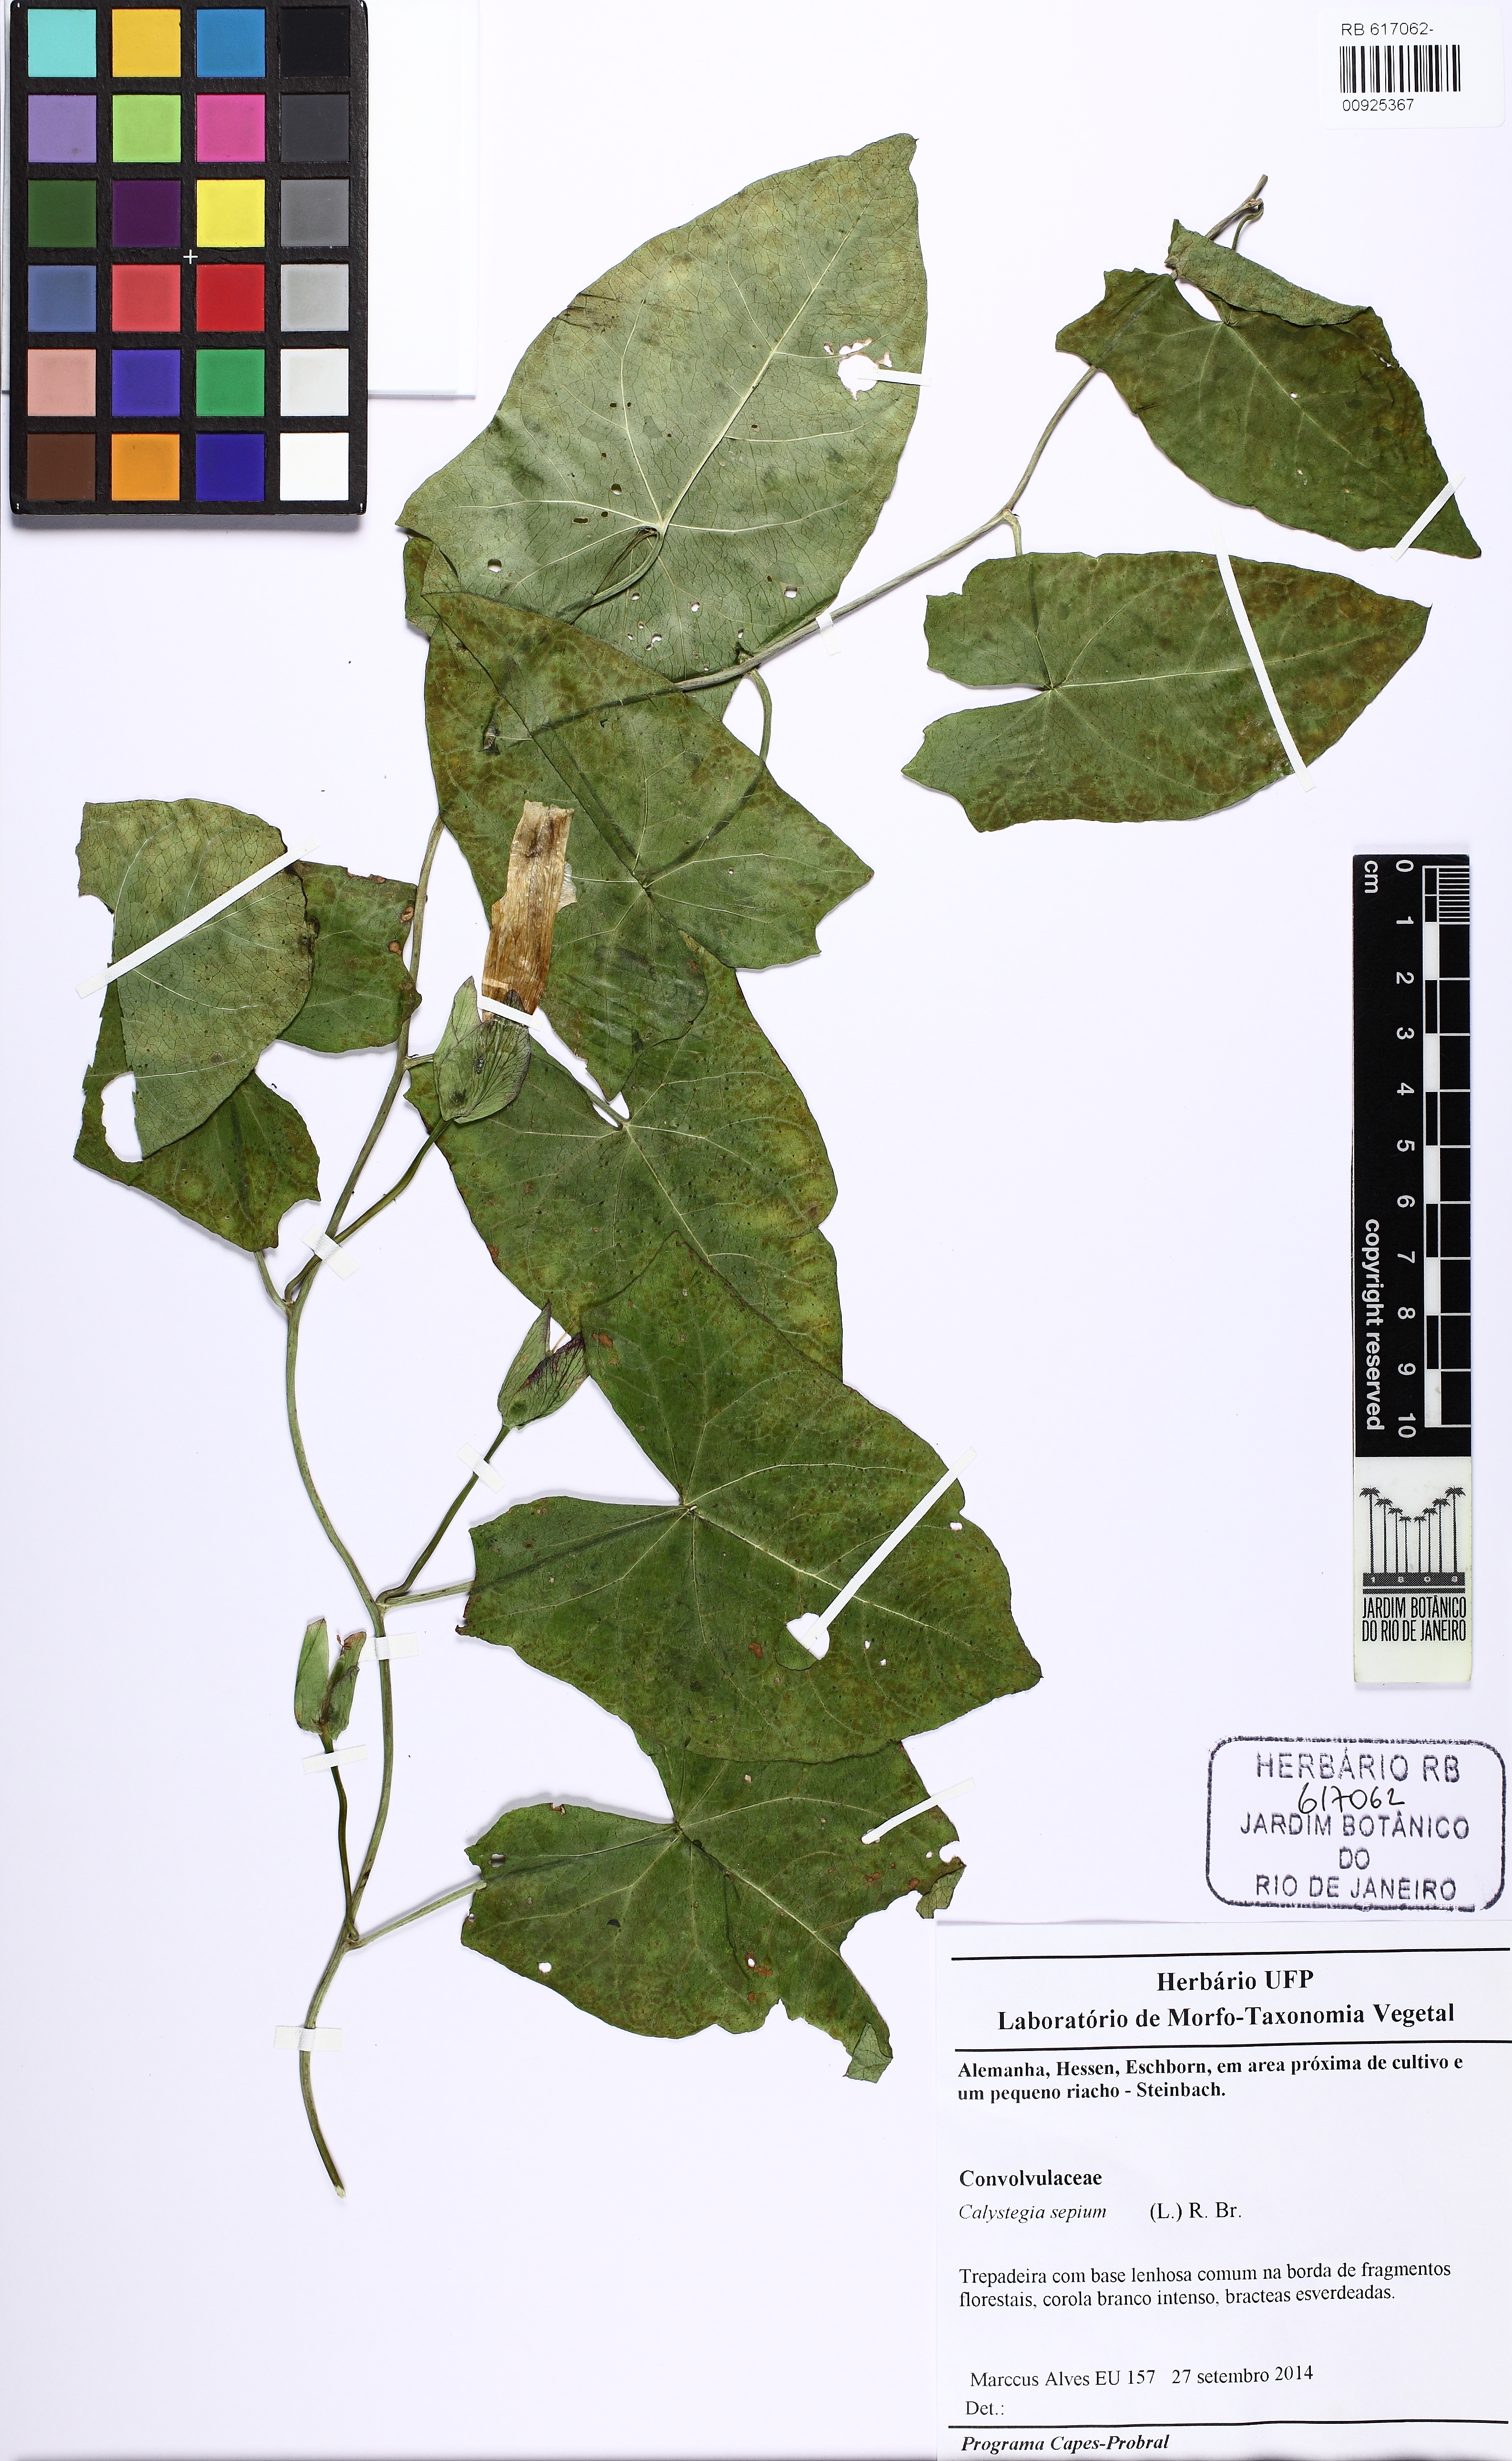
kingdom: Plantae
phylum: Tracheophyta
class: Magnoliopsida
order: Solanales
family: Convolvulaceae
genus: Calystegia
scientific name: Calystegia sepium
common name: Hedge bindweed
